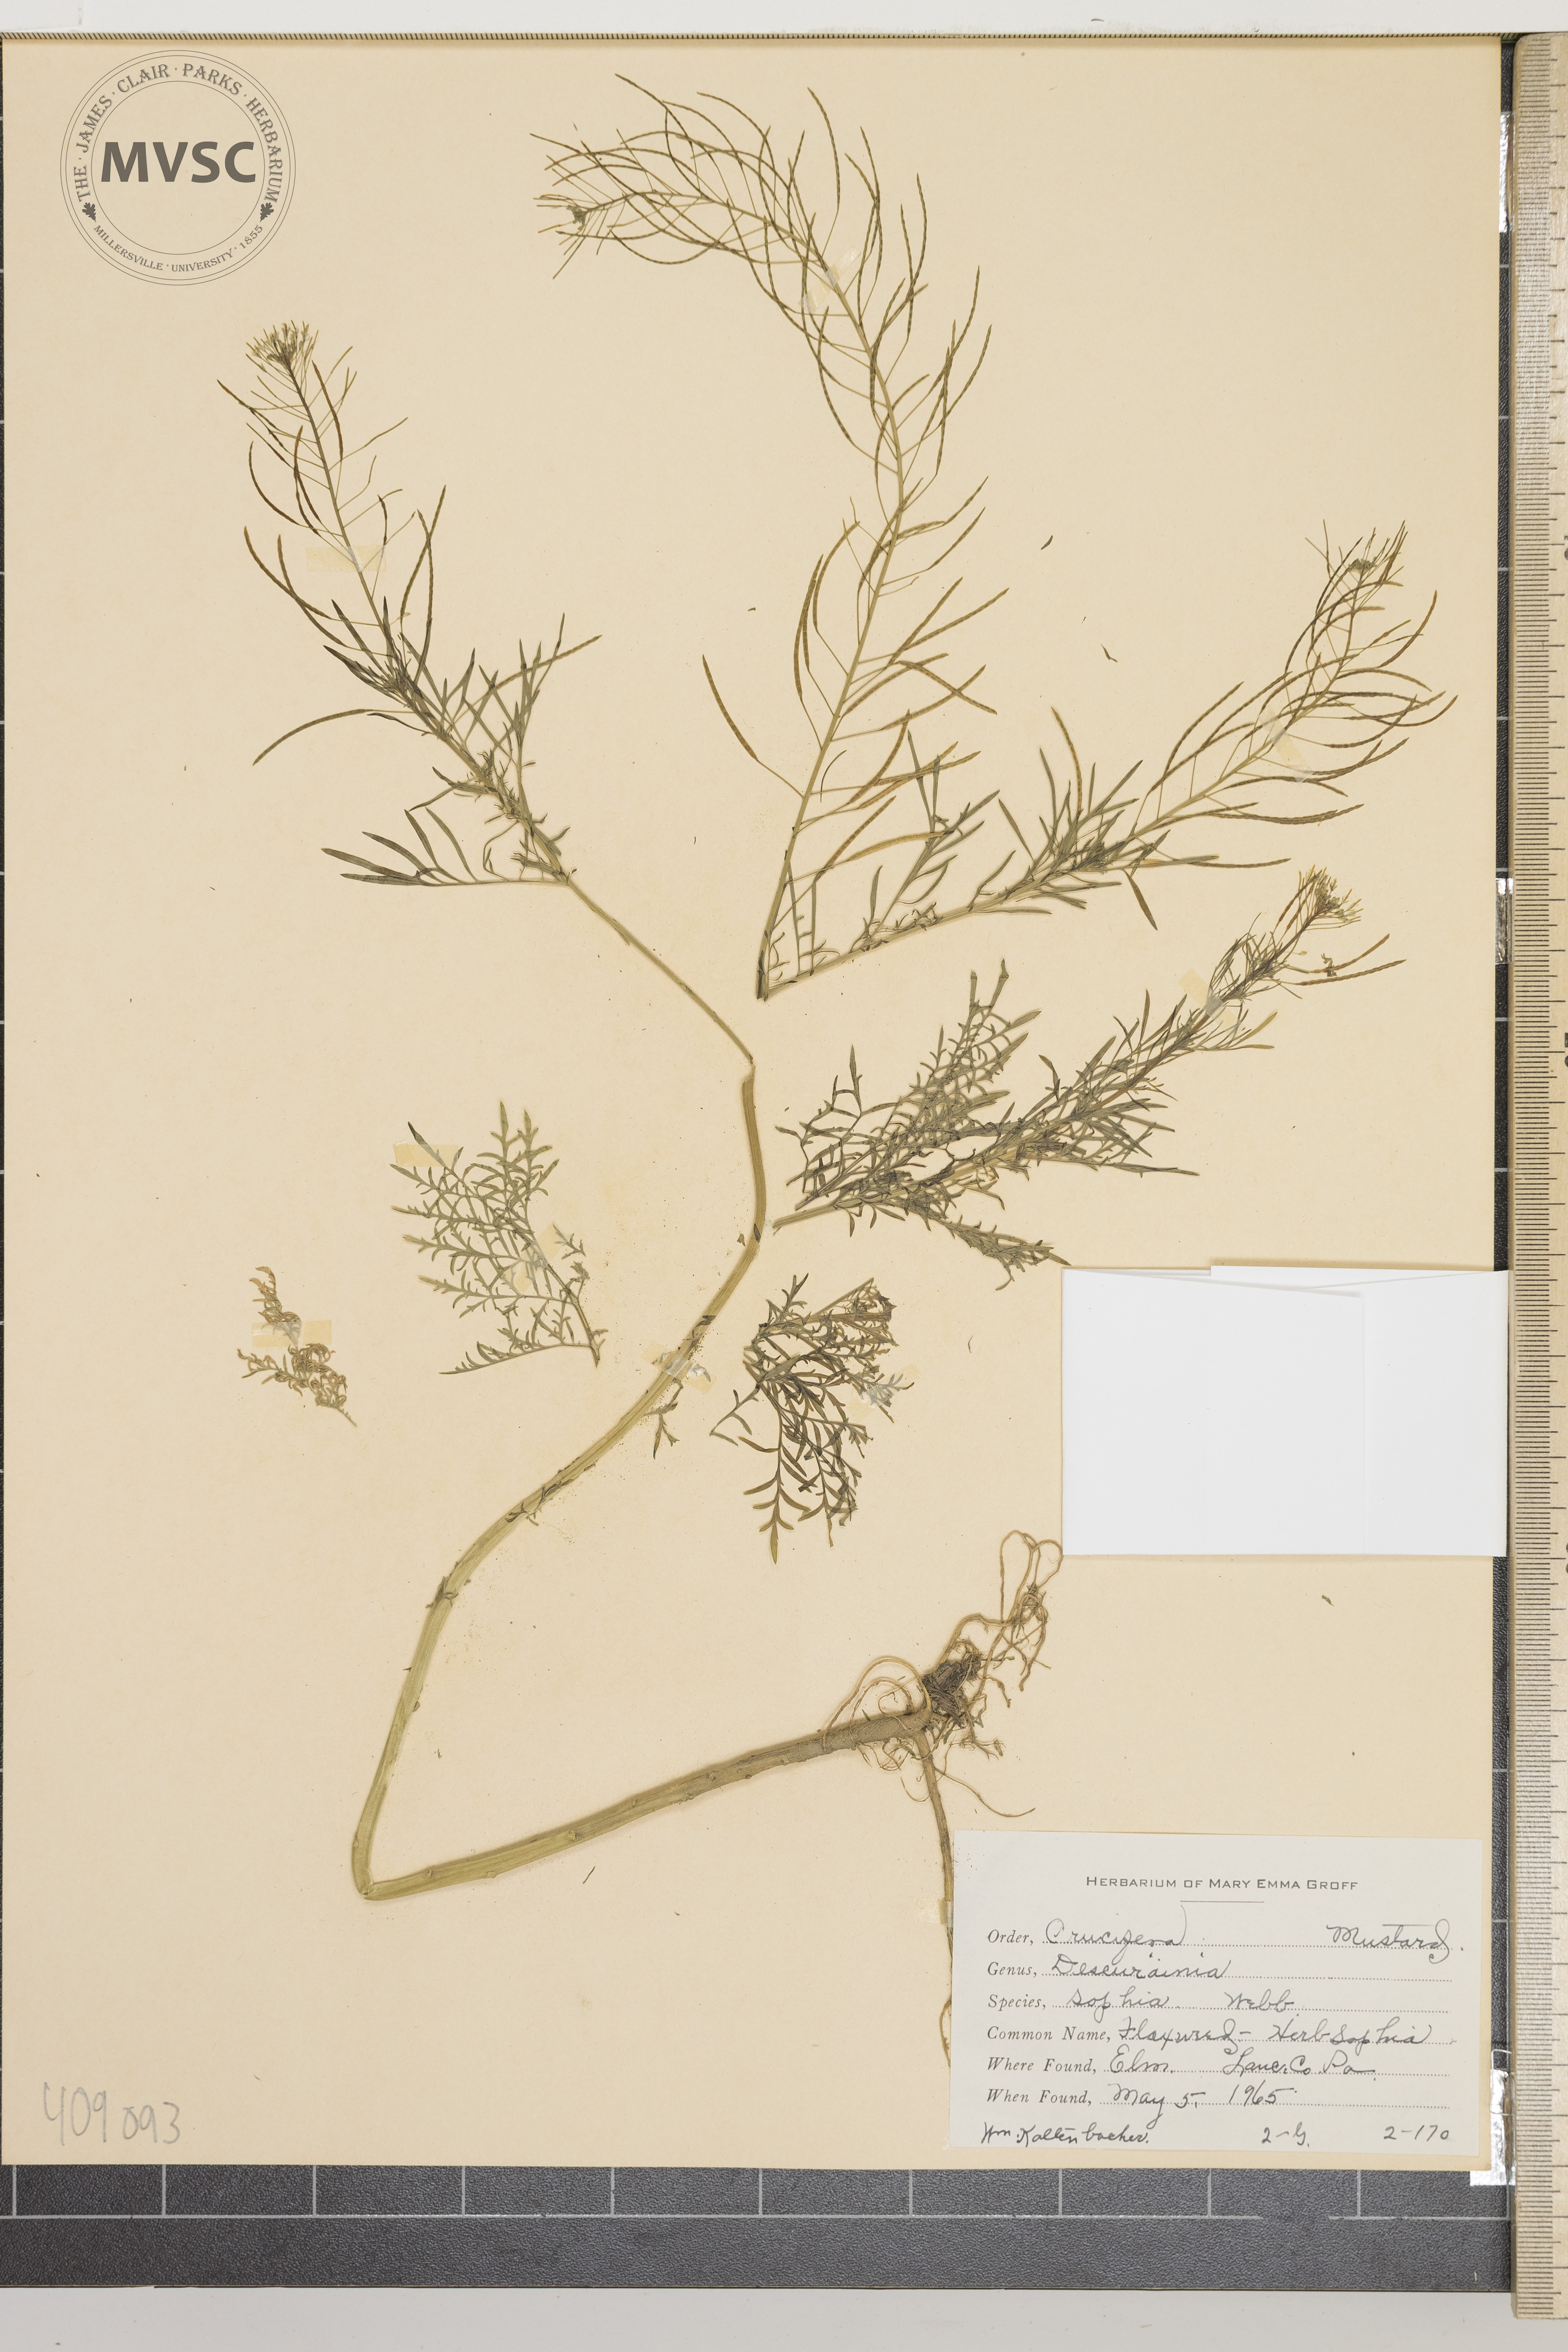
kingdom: Plantae
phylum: Tracheophyta
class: Magnoliopsida
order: Brassicales
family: Brassicaceae
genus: Descurainia
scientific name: Descurainia sophia
